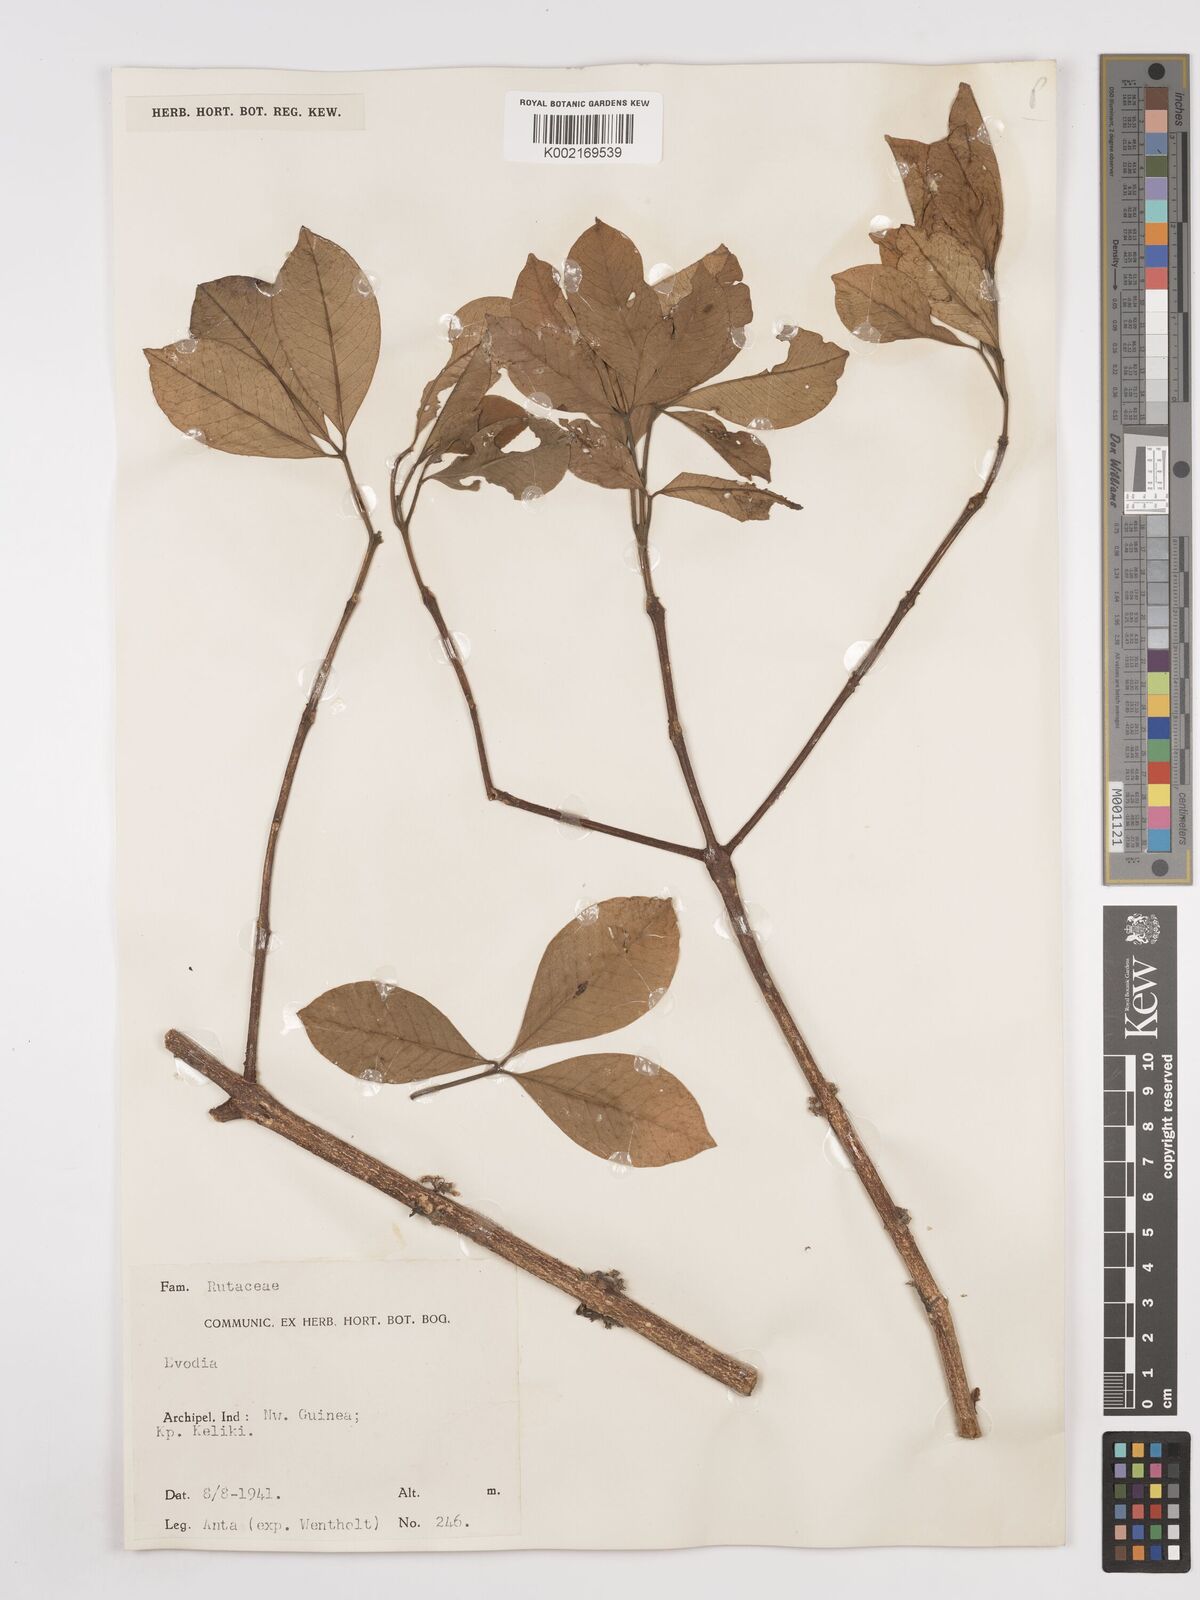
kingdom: Plantae
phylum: Tracheophyta
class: Magnoliopsida
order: Sapindales
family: Rutaceae
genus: Euodia
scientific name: Euodia
